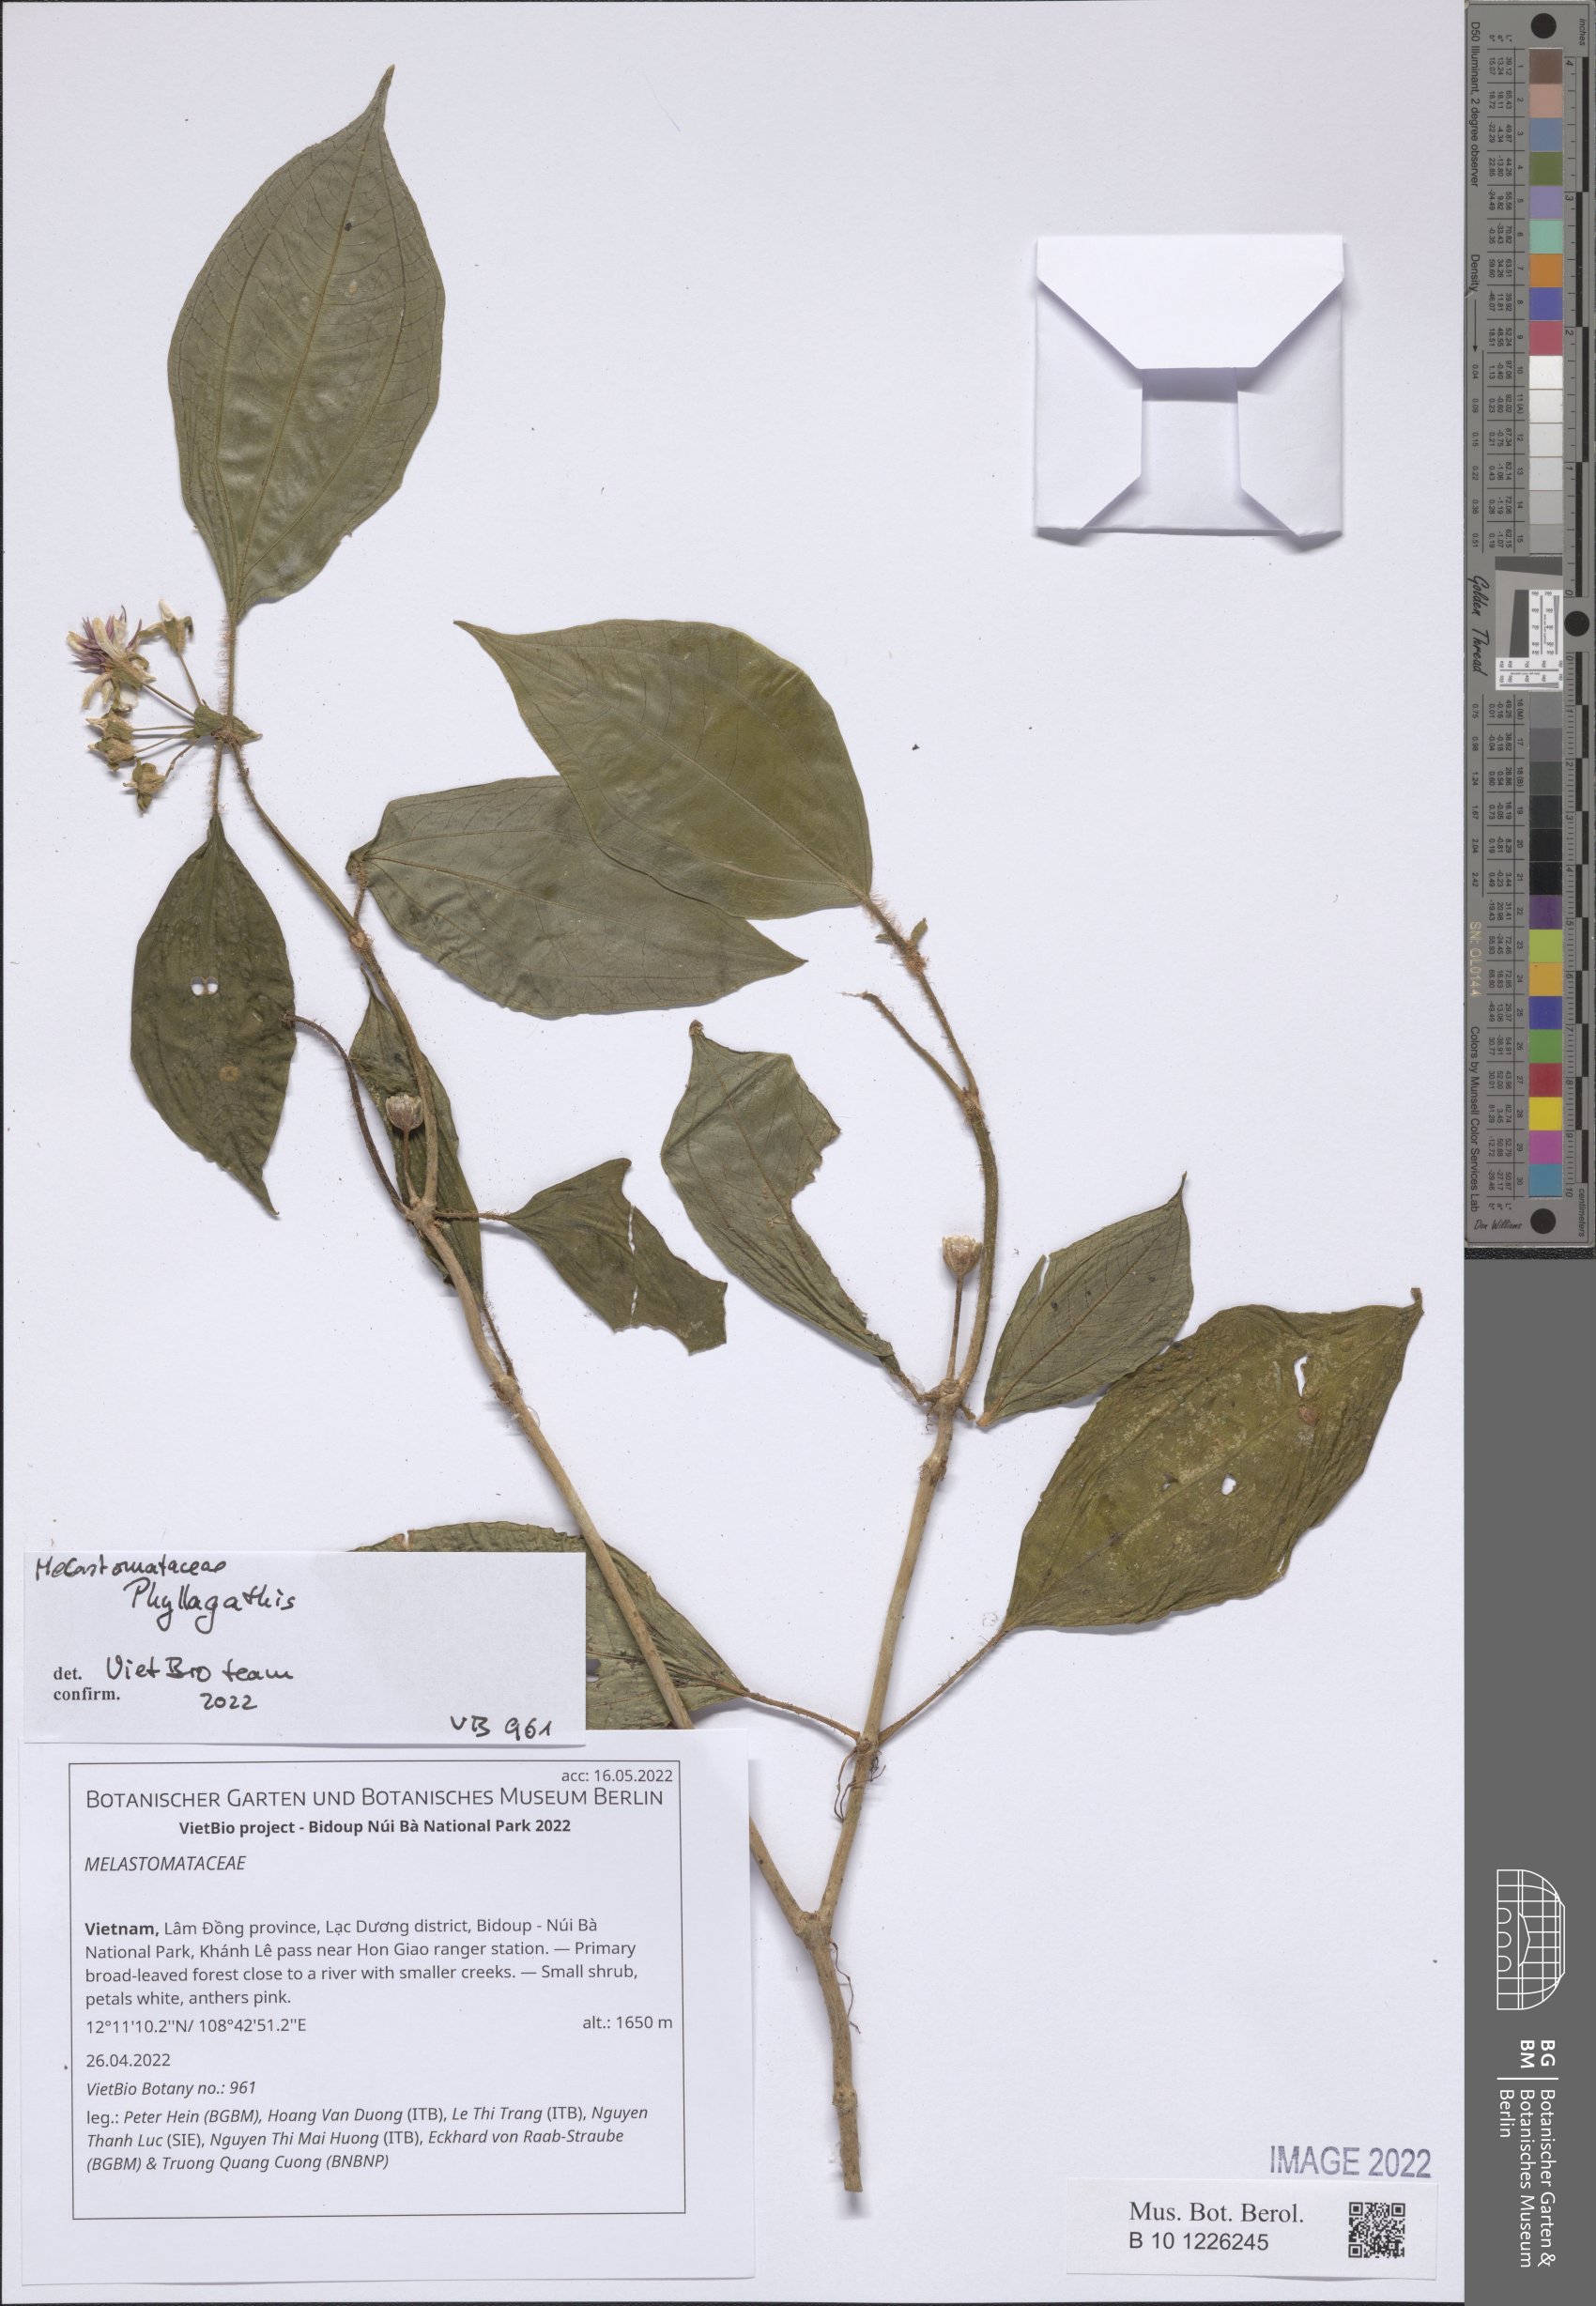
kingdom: Plantae
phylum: Tracheophyta
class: Magnoliopsida
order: Myrtales
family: Melastomataceae
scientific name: Melastomataceae
